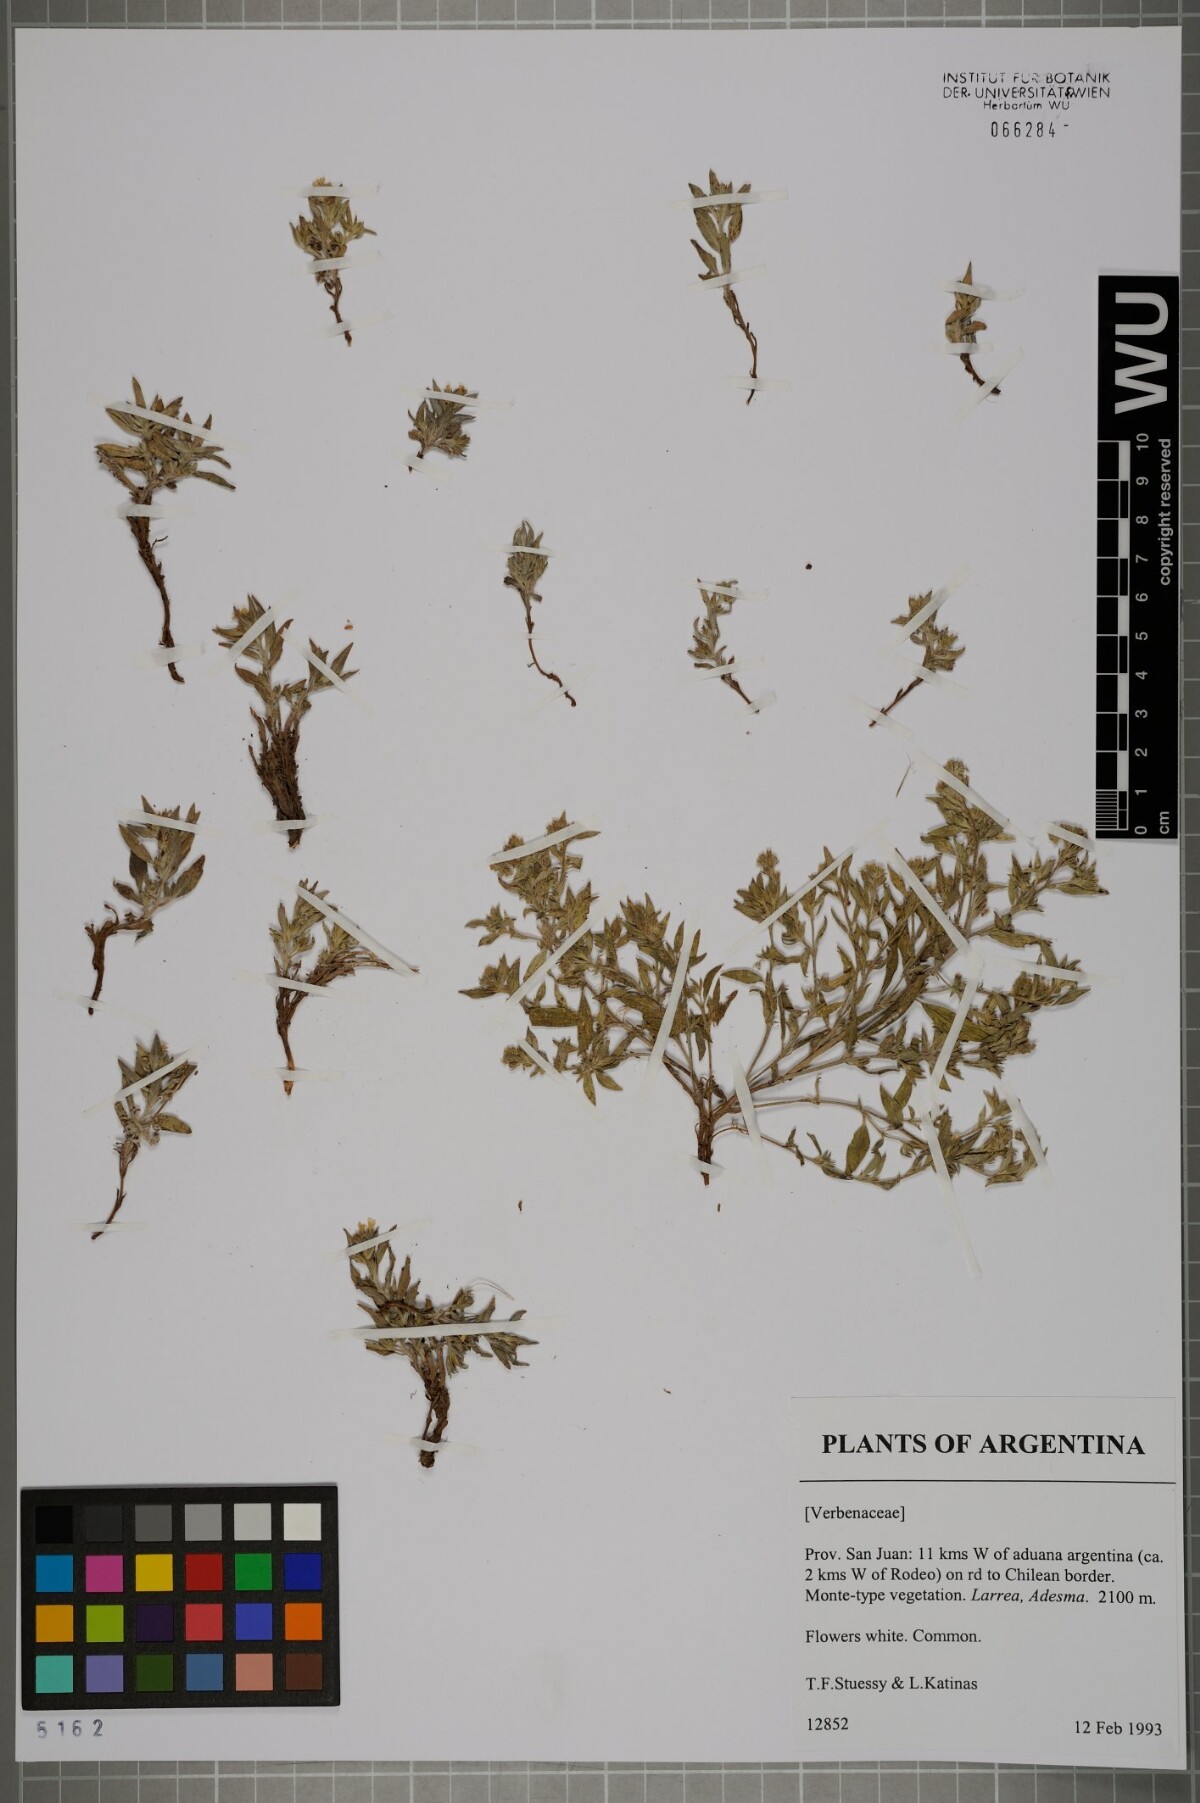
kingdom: Plantae
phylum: Tracheophyta
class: Magnoliopsida
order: Lamiales
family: Verbenaceae
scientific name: Verbenaceae
